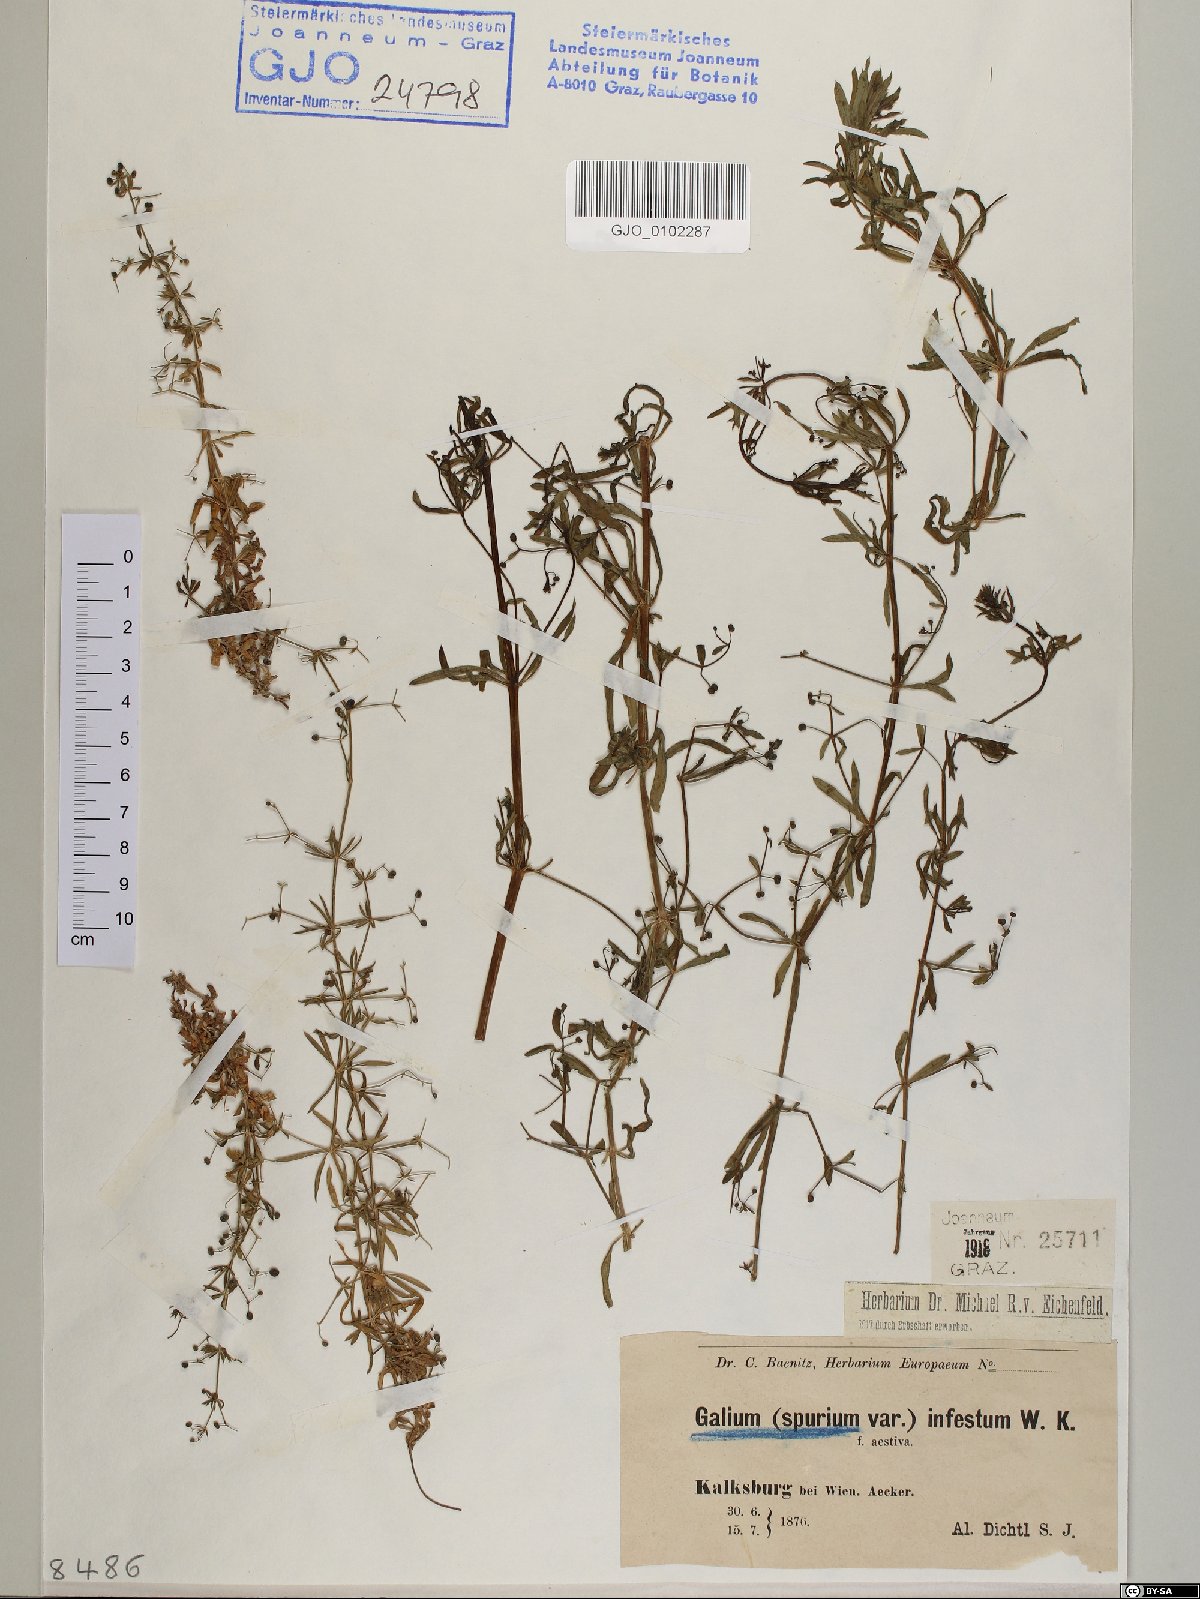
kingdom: Plantae
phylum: Tracheophyta
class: Magnoliopsida
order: Gentianales
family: Rubiaceae
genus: Galium
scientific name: Galium spurium
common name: False cleavers
